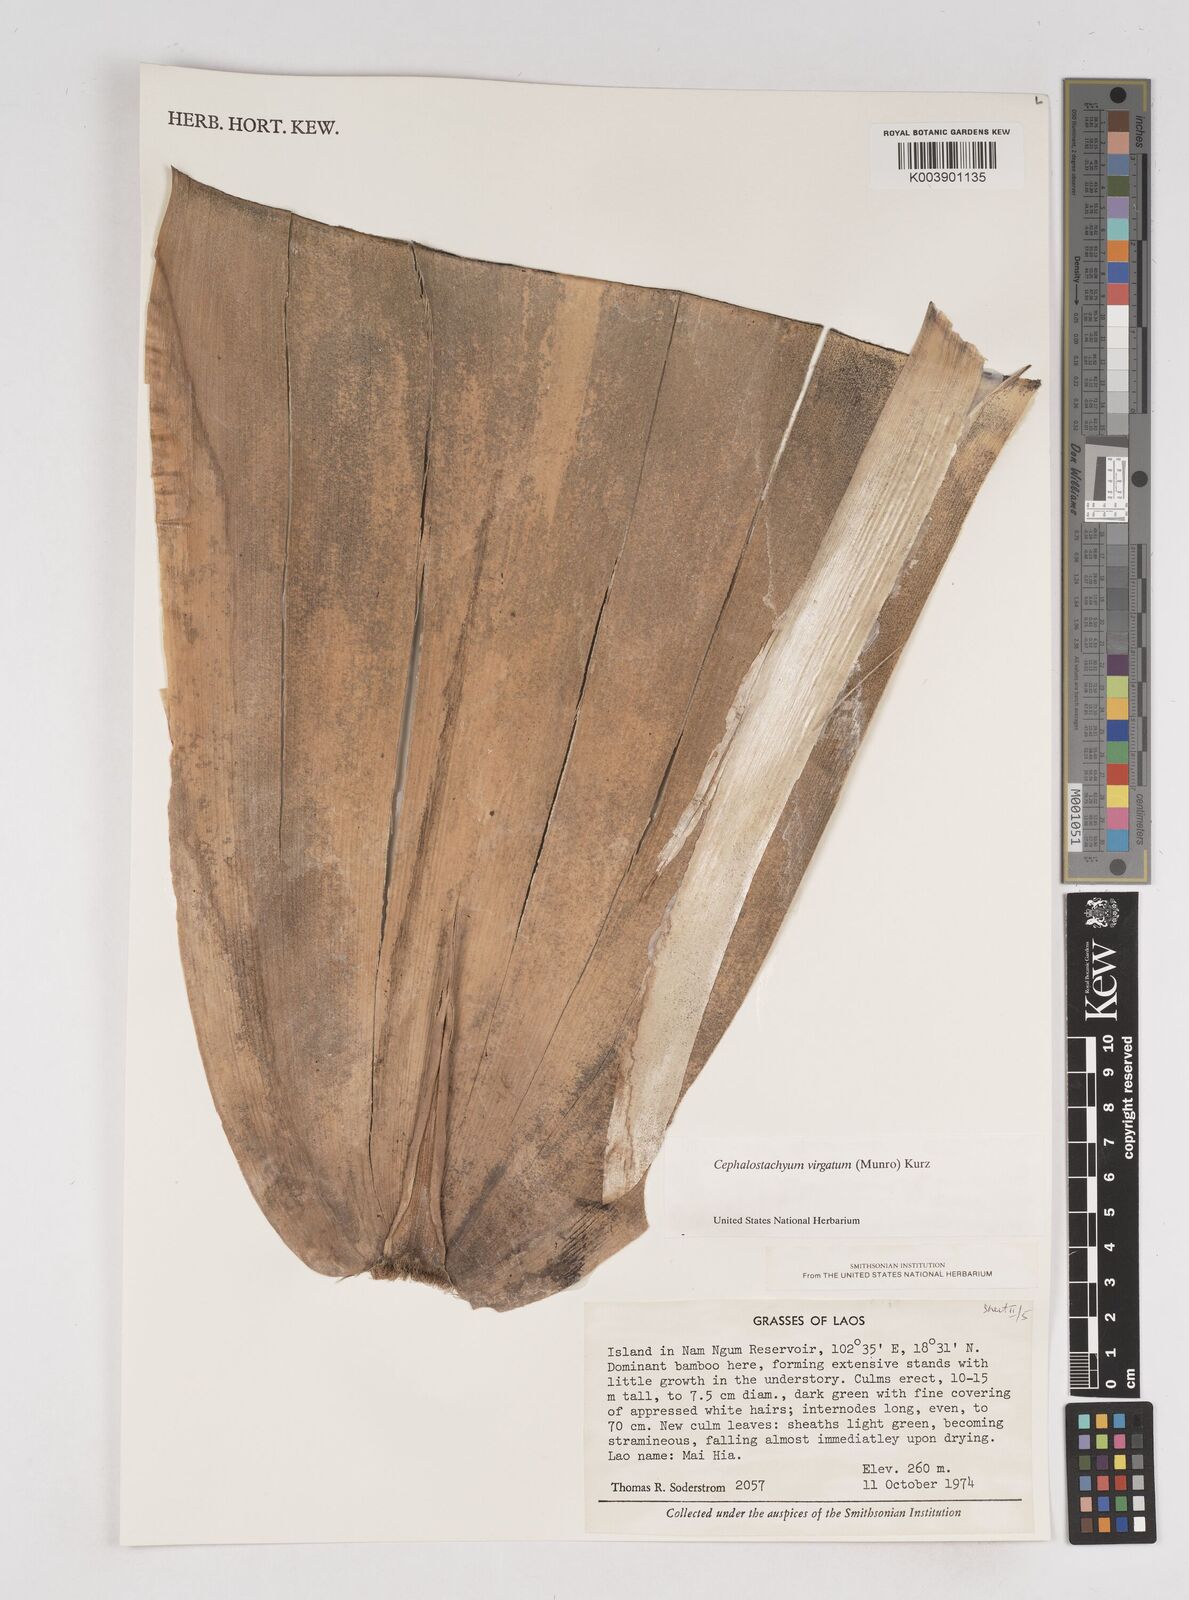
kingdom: Plantae
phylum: Tracheophyta
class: Liliopsida
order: Poales
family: Poaceae
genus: Schizostachyum
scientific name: Schizostachyum virgatum
